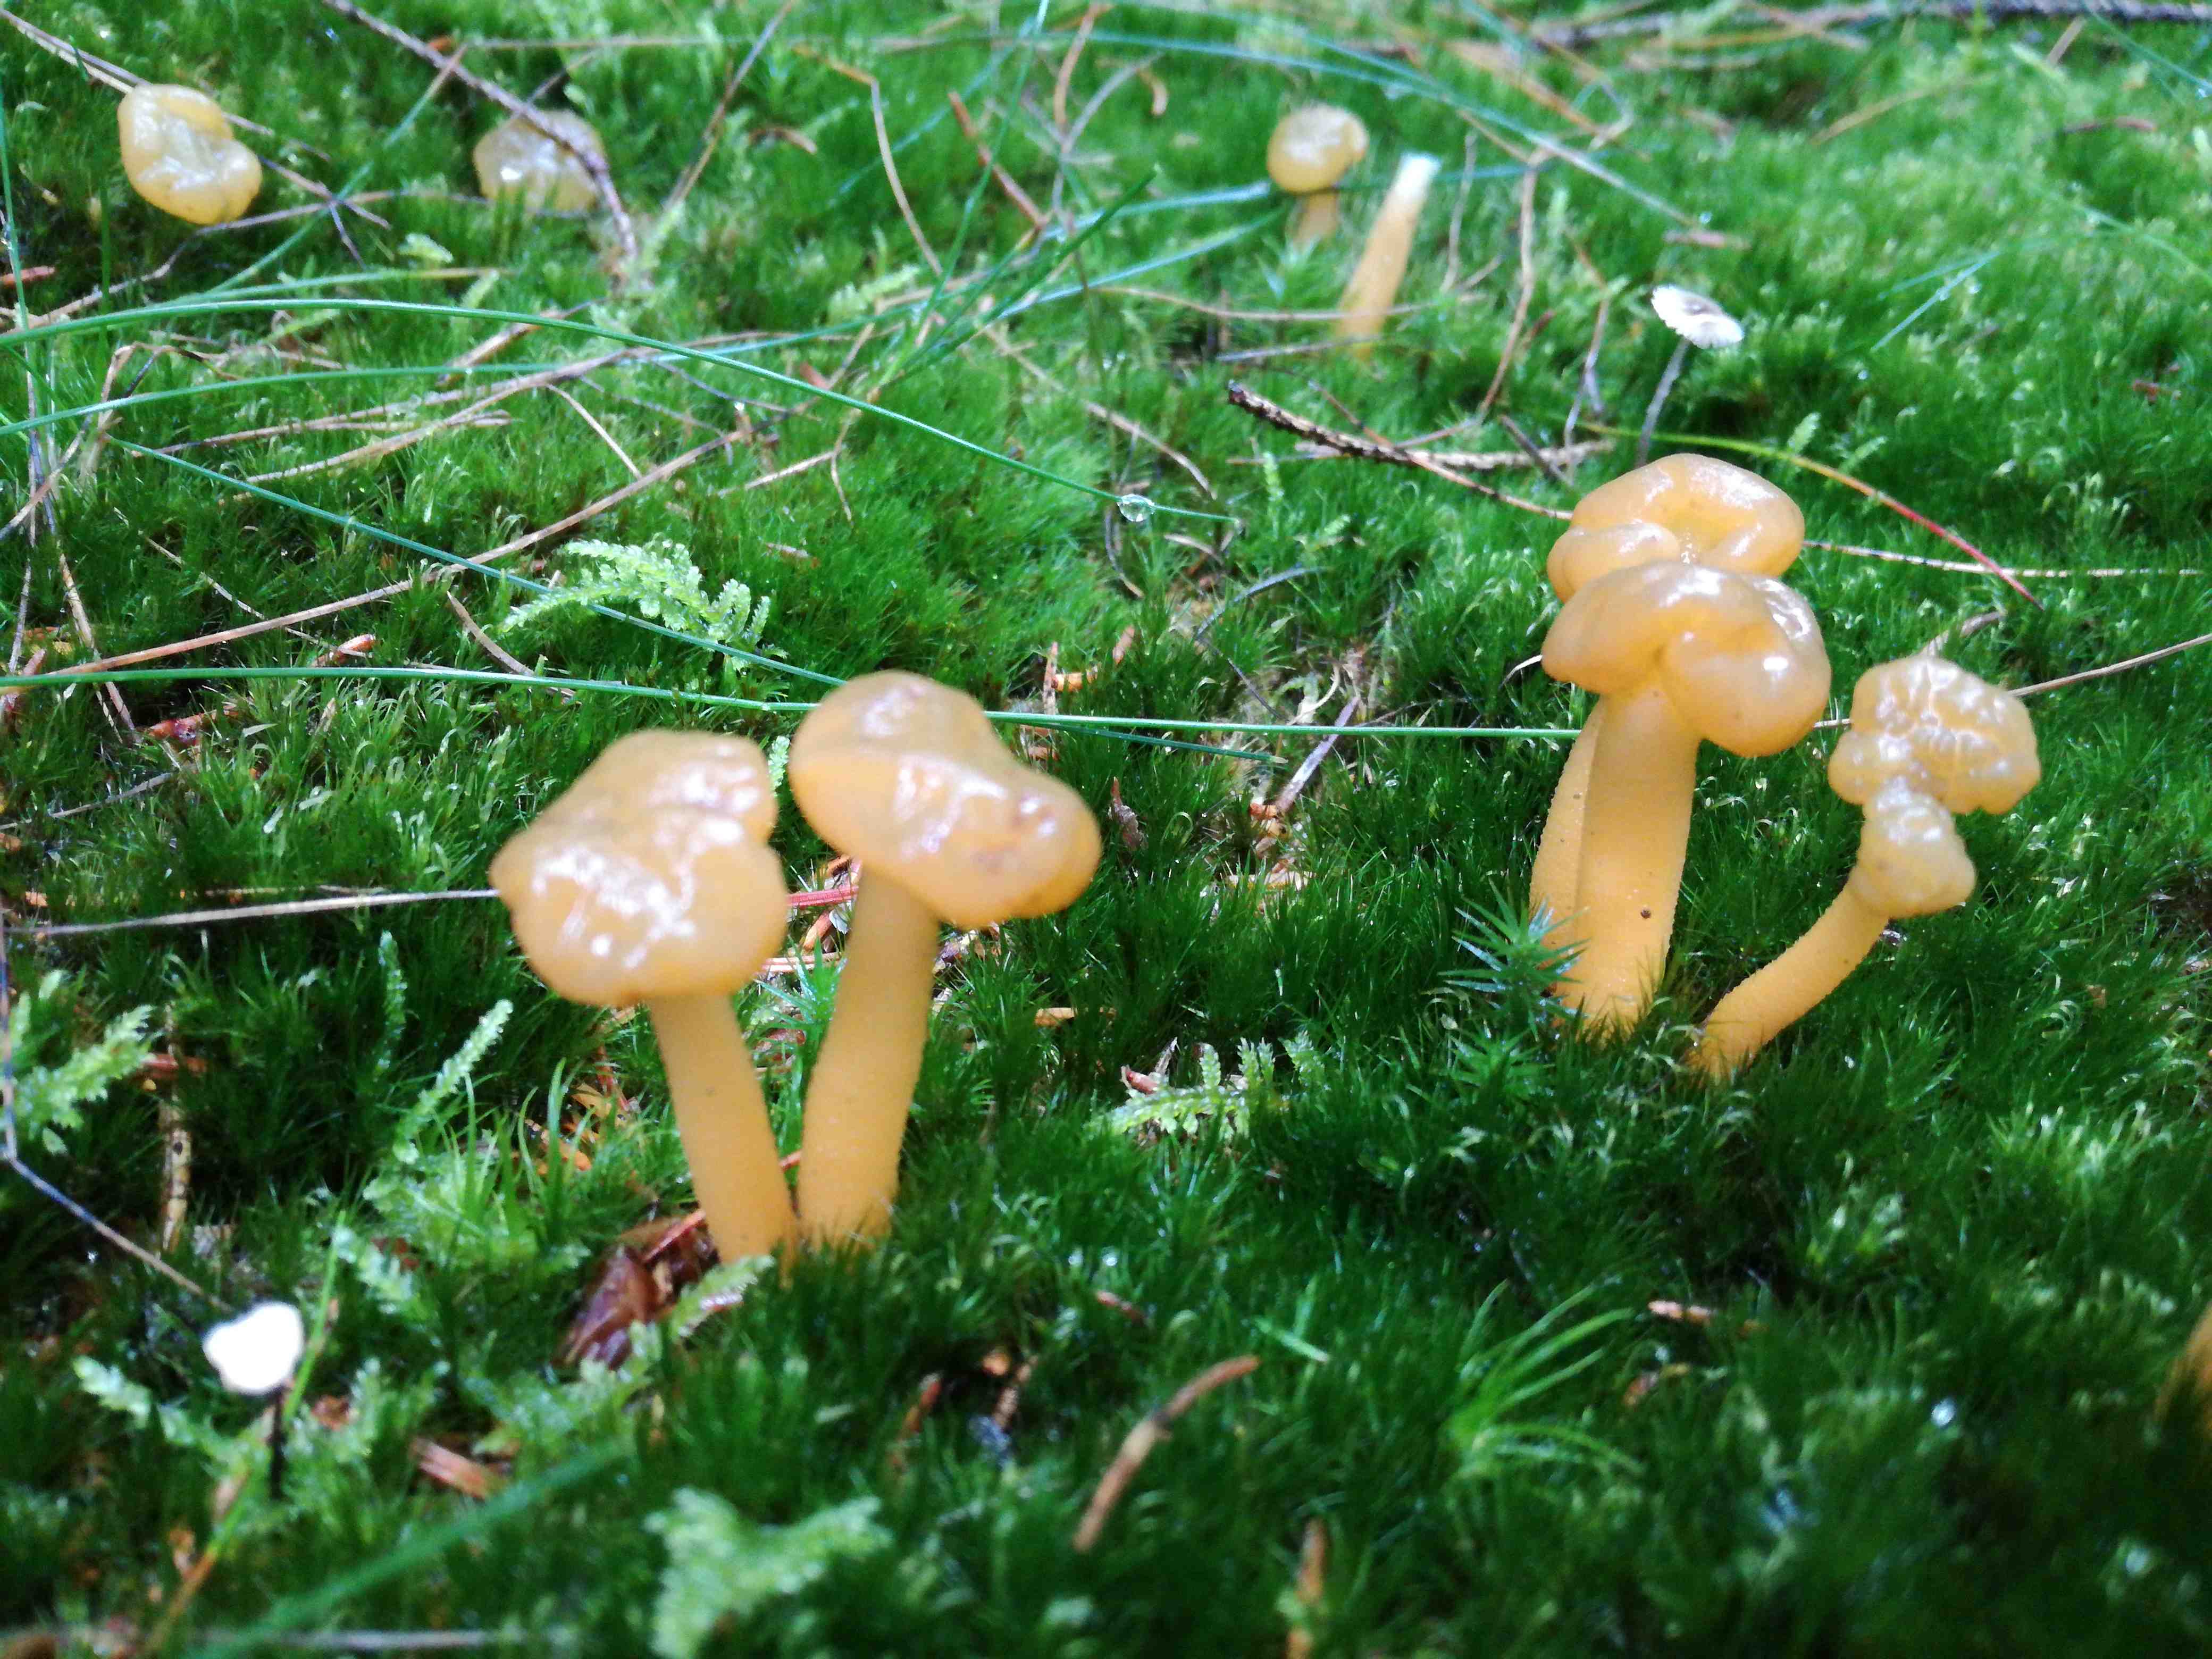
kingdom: Fungi
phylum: Ascomycota
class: Leotiomycetes
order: Leotiales
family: Leotiaceae
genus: Leotia
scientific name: Leotia lubrica
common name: ravsvamp
